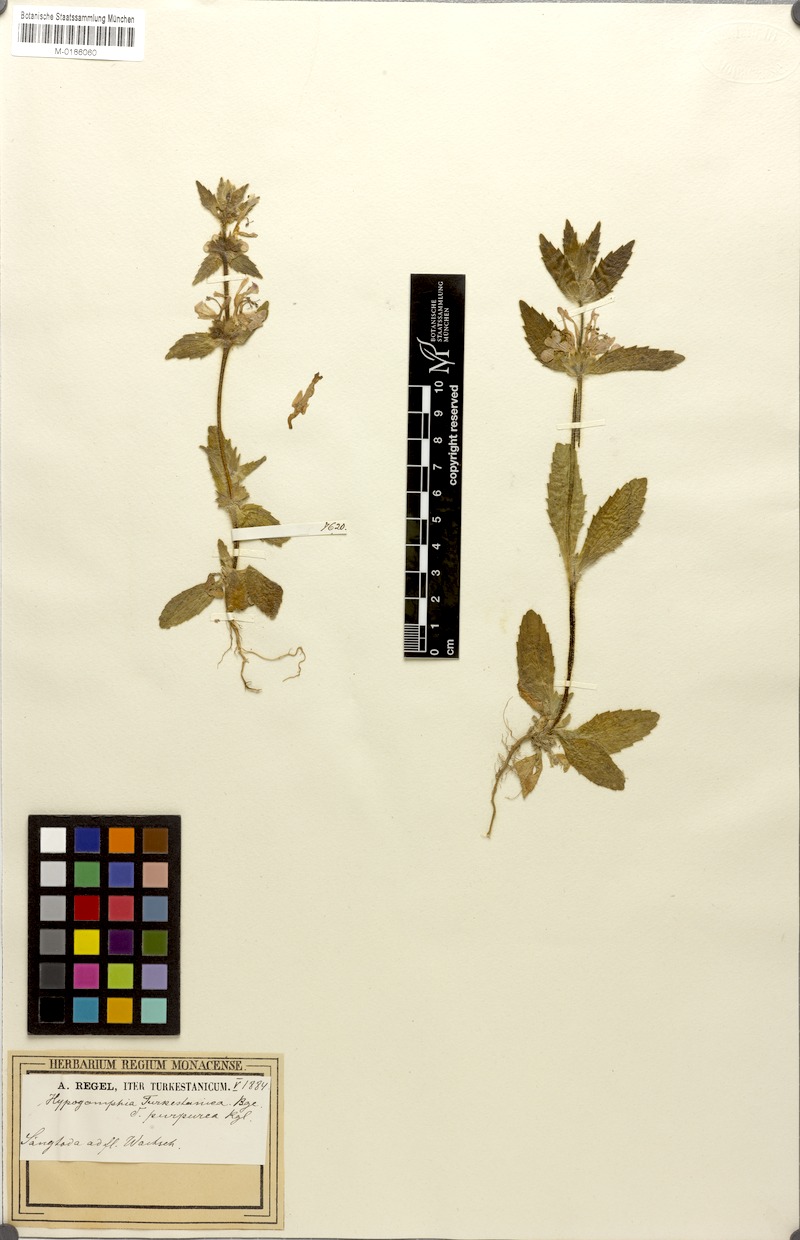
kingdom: Plantae
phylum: Tracheophyta
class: Magnoliopsida
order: Lamiales
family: Lamiaceae
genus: Hypogomphia
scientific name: Hypogomphia purpurea
